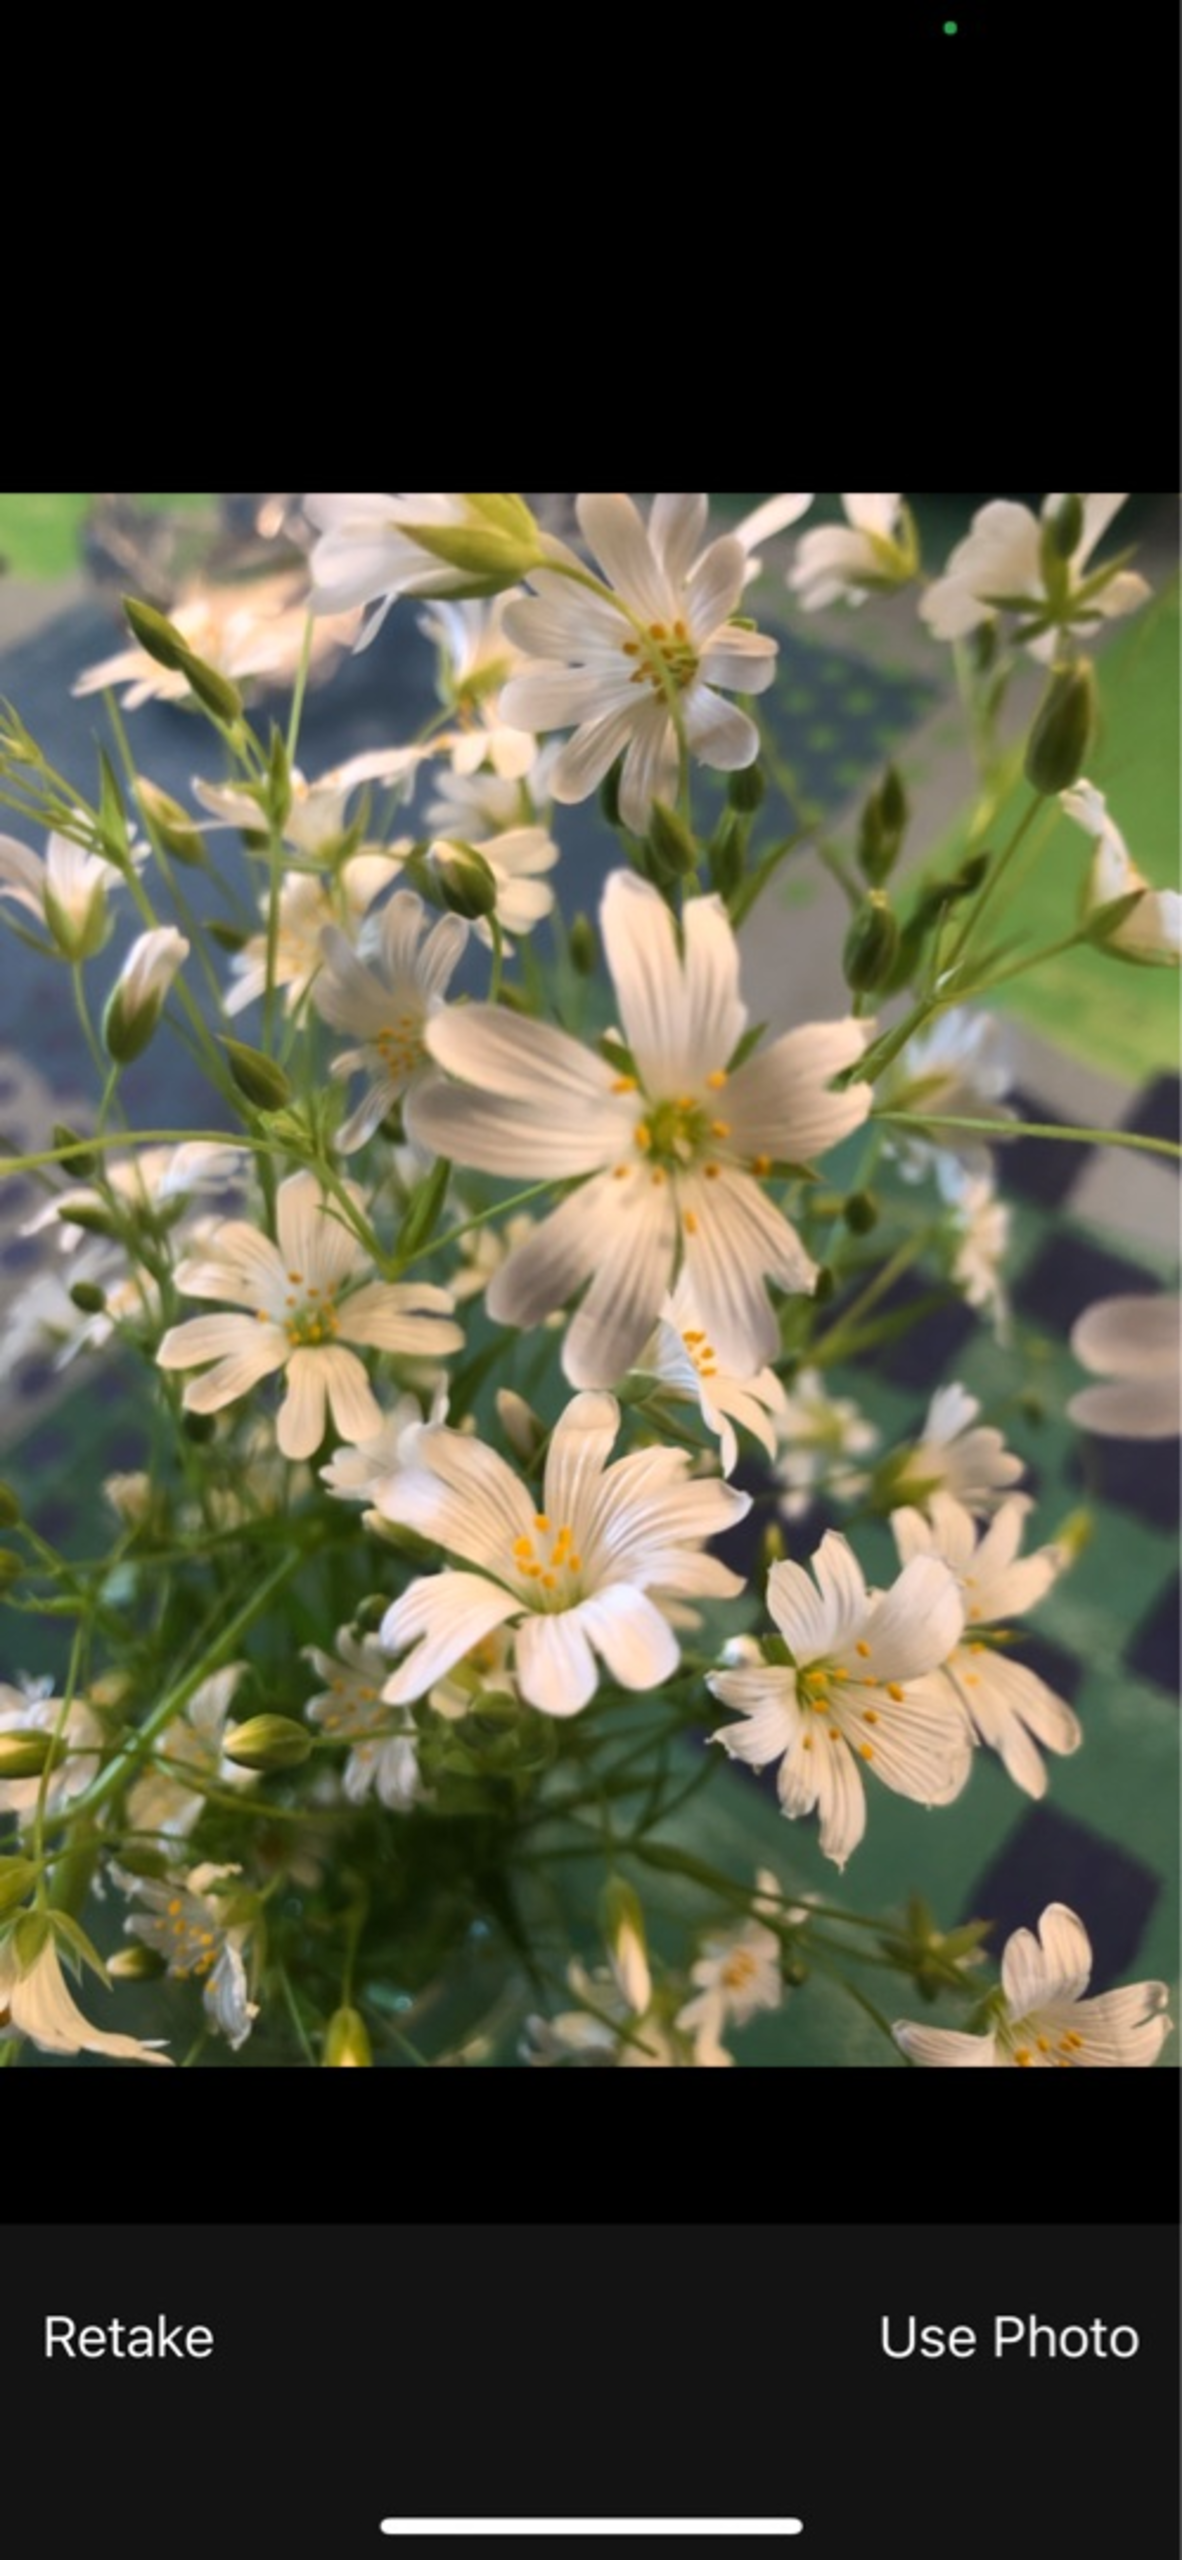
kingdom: Plantae
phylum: Tracheophyta
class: Magnoliopsida
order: Caryophyllales
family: Caryophyllaceae
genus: Rabelera
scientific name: Rabelera holostea
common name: Stor fladstjerne
